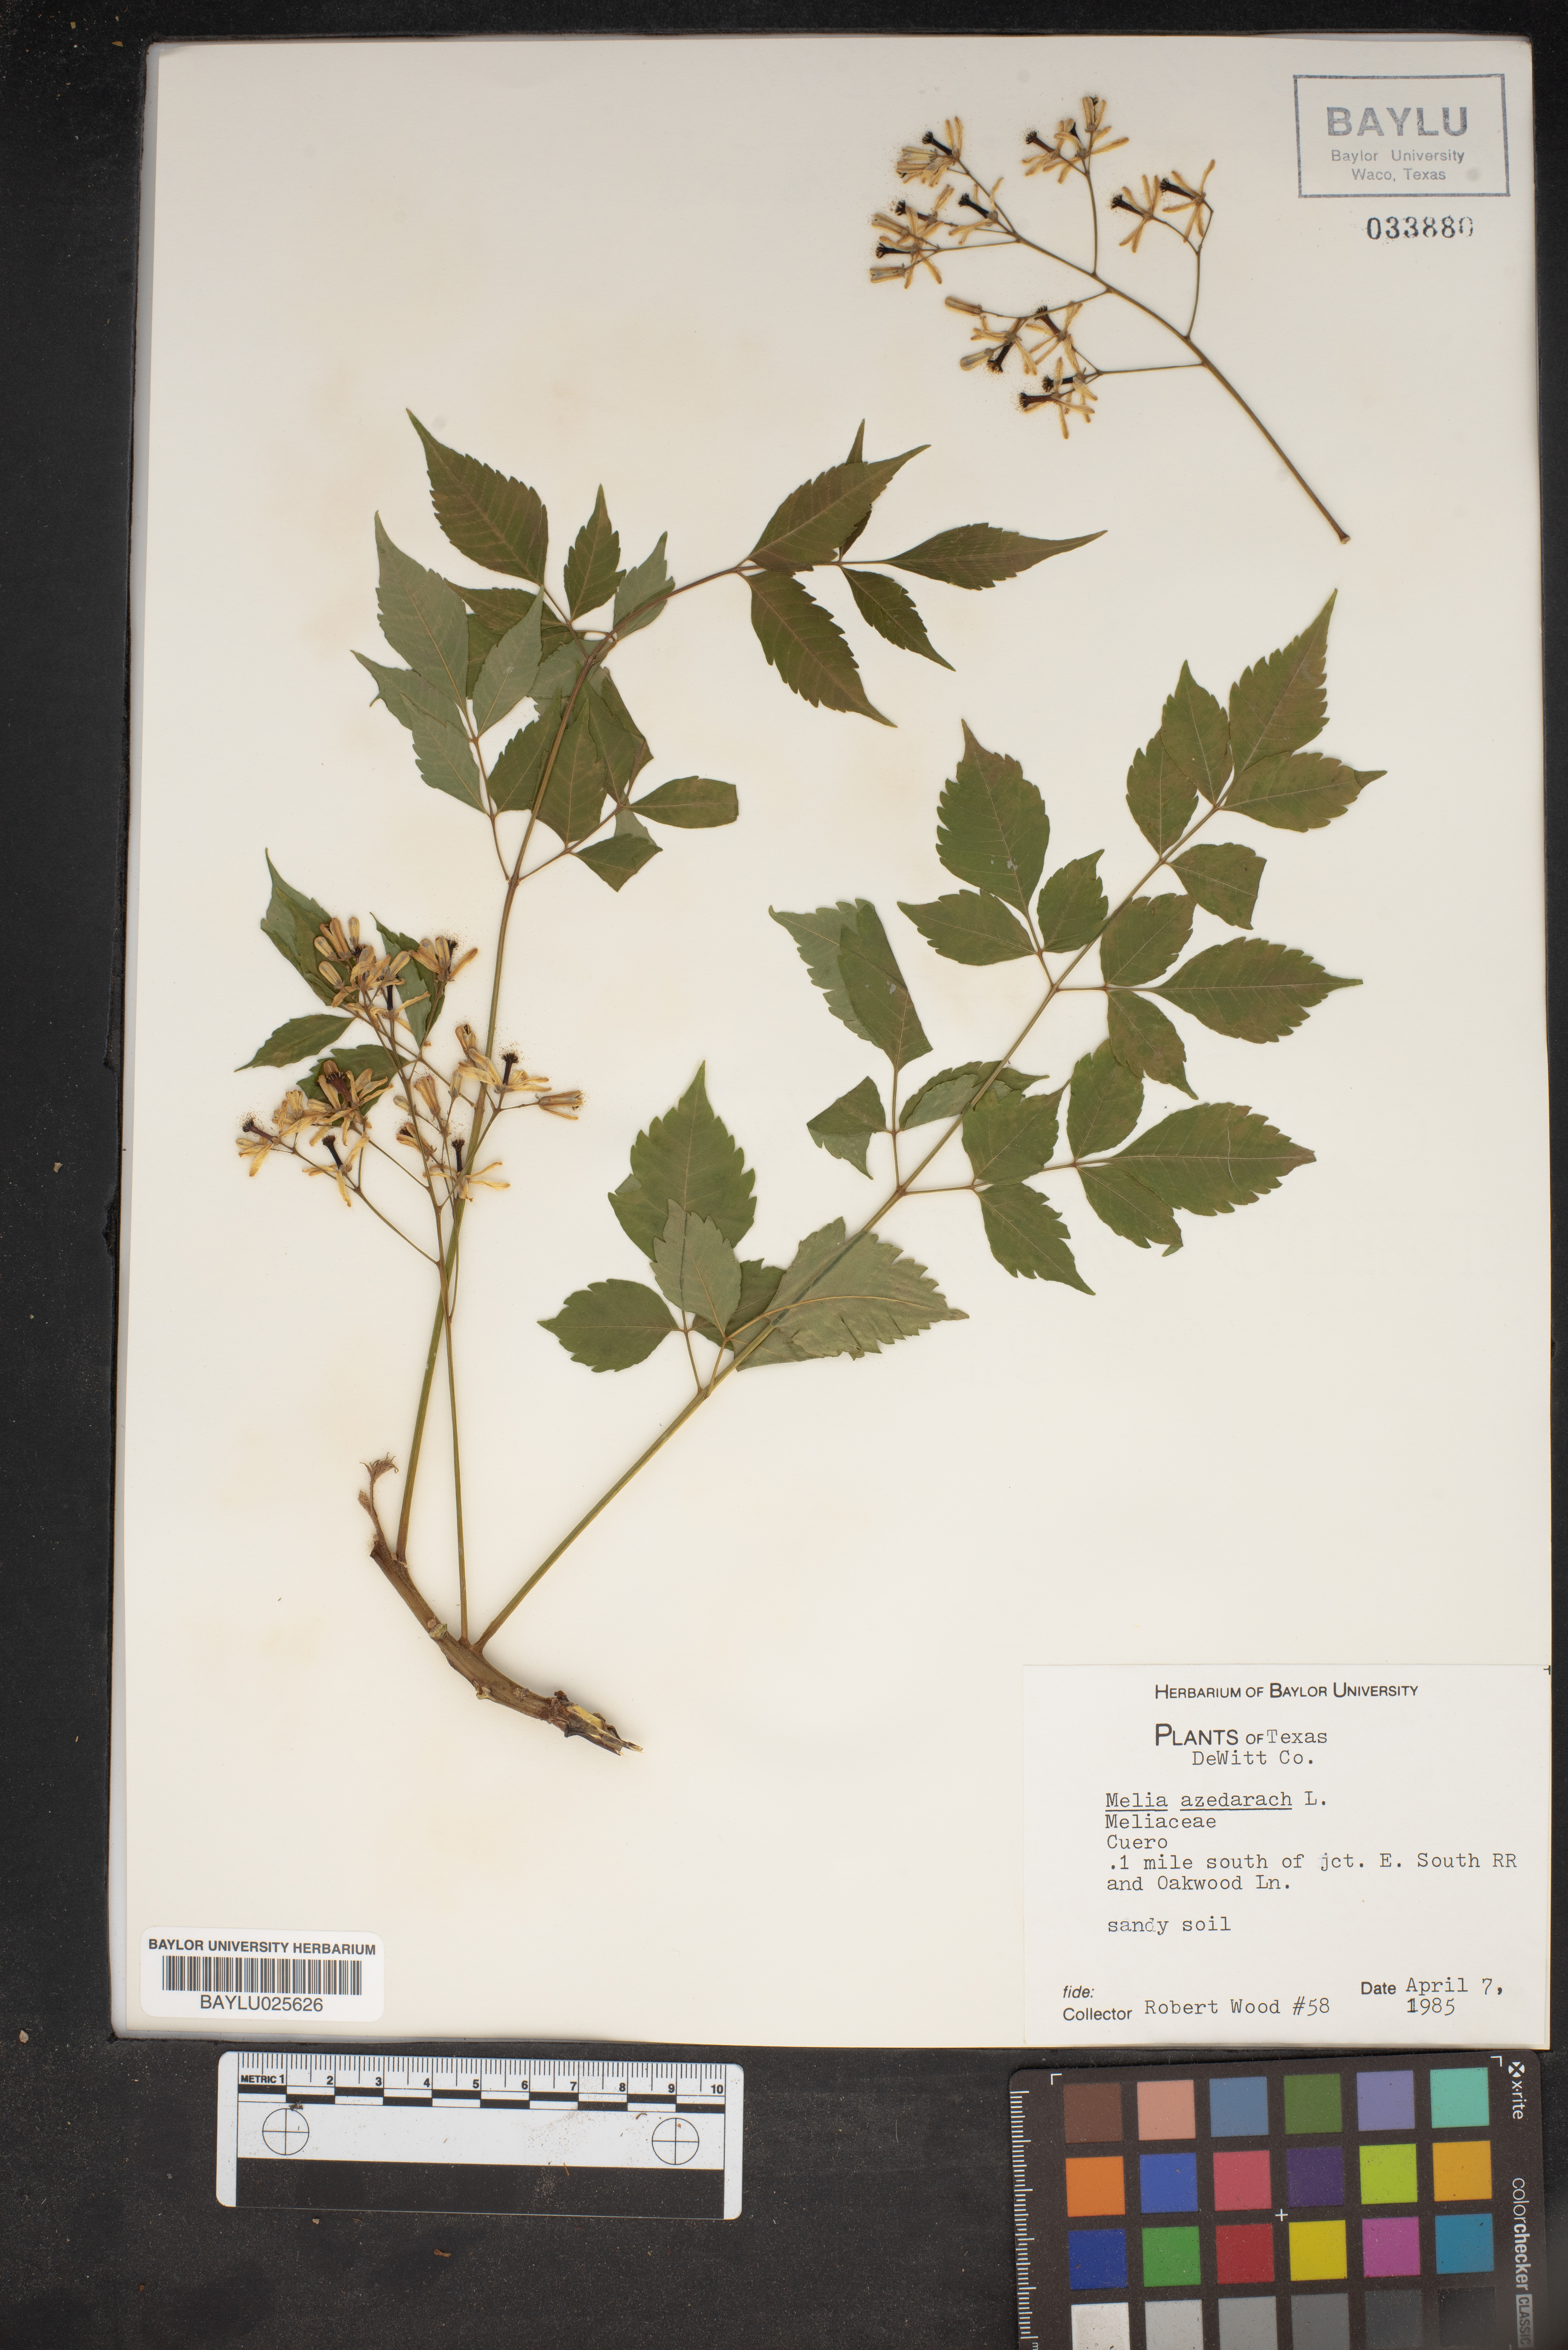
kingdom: Plantae
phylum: Tracheophyta
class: Magnoliopsida
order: Sapindales
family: Meliaceae
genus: Melia
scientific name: Melia azedarach
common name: Chinaberrytree
